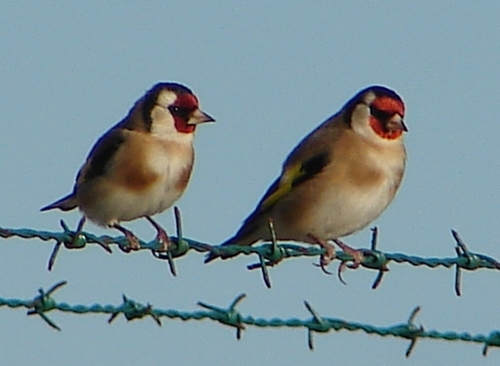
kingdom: Animalia
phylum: Chordata
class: Aves
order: Passeriformes
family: Fringillidae
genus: Carduelis
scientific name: Carduelis carduelis
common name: European goldfinch
